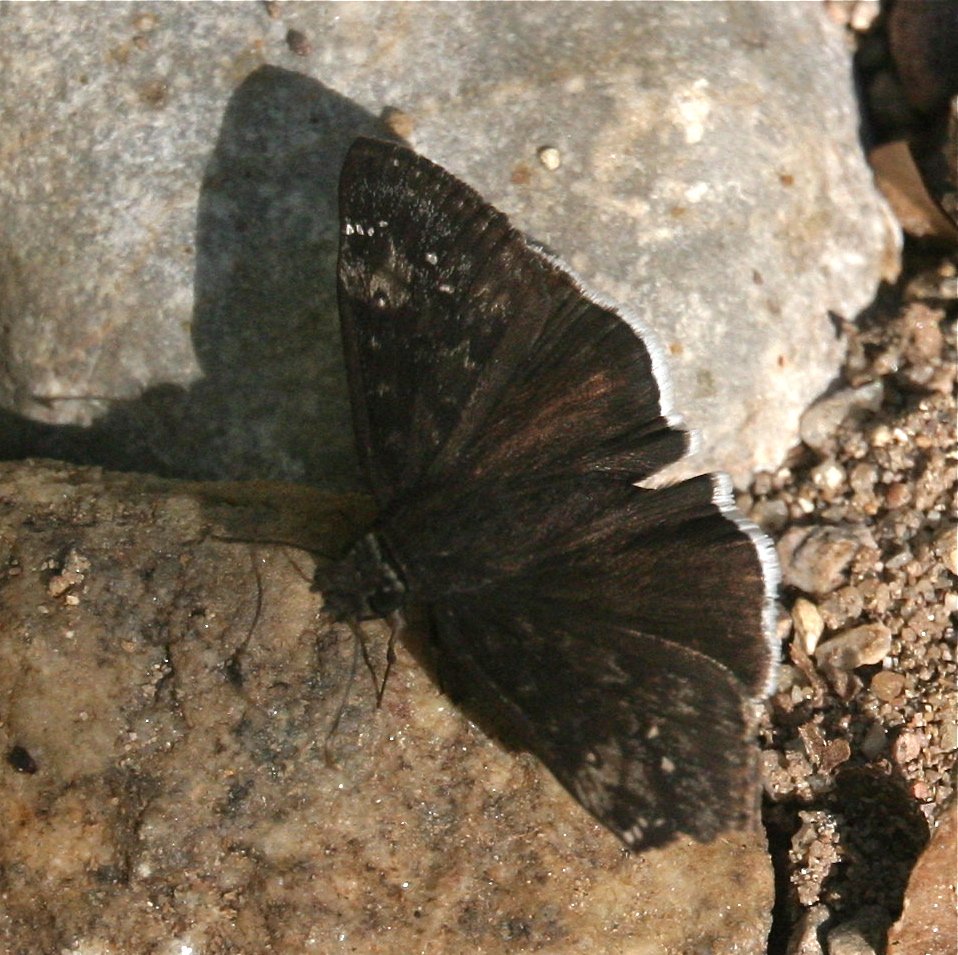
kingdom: Animalia
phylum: Arthropoda
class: Insecta
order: Lepidoptera
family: Hesperiidae
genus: Erynnis
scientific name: Erynnis funeralis
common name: Funereal Duskywing
